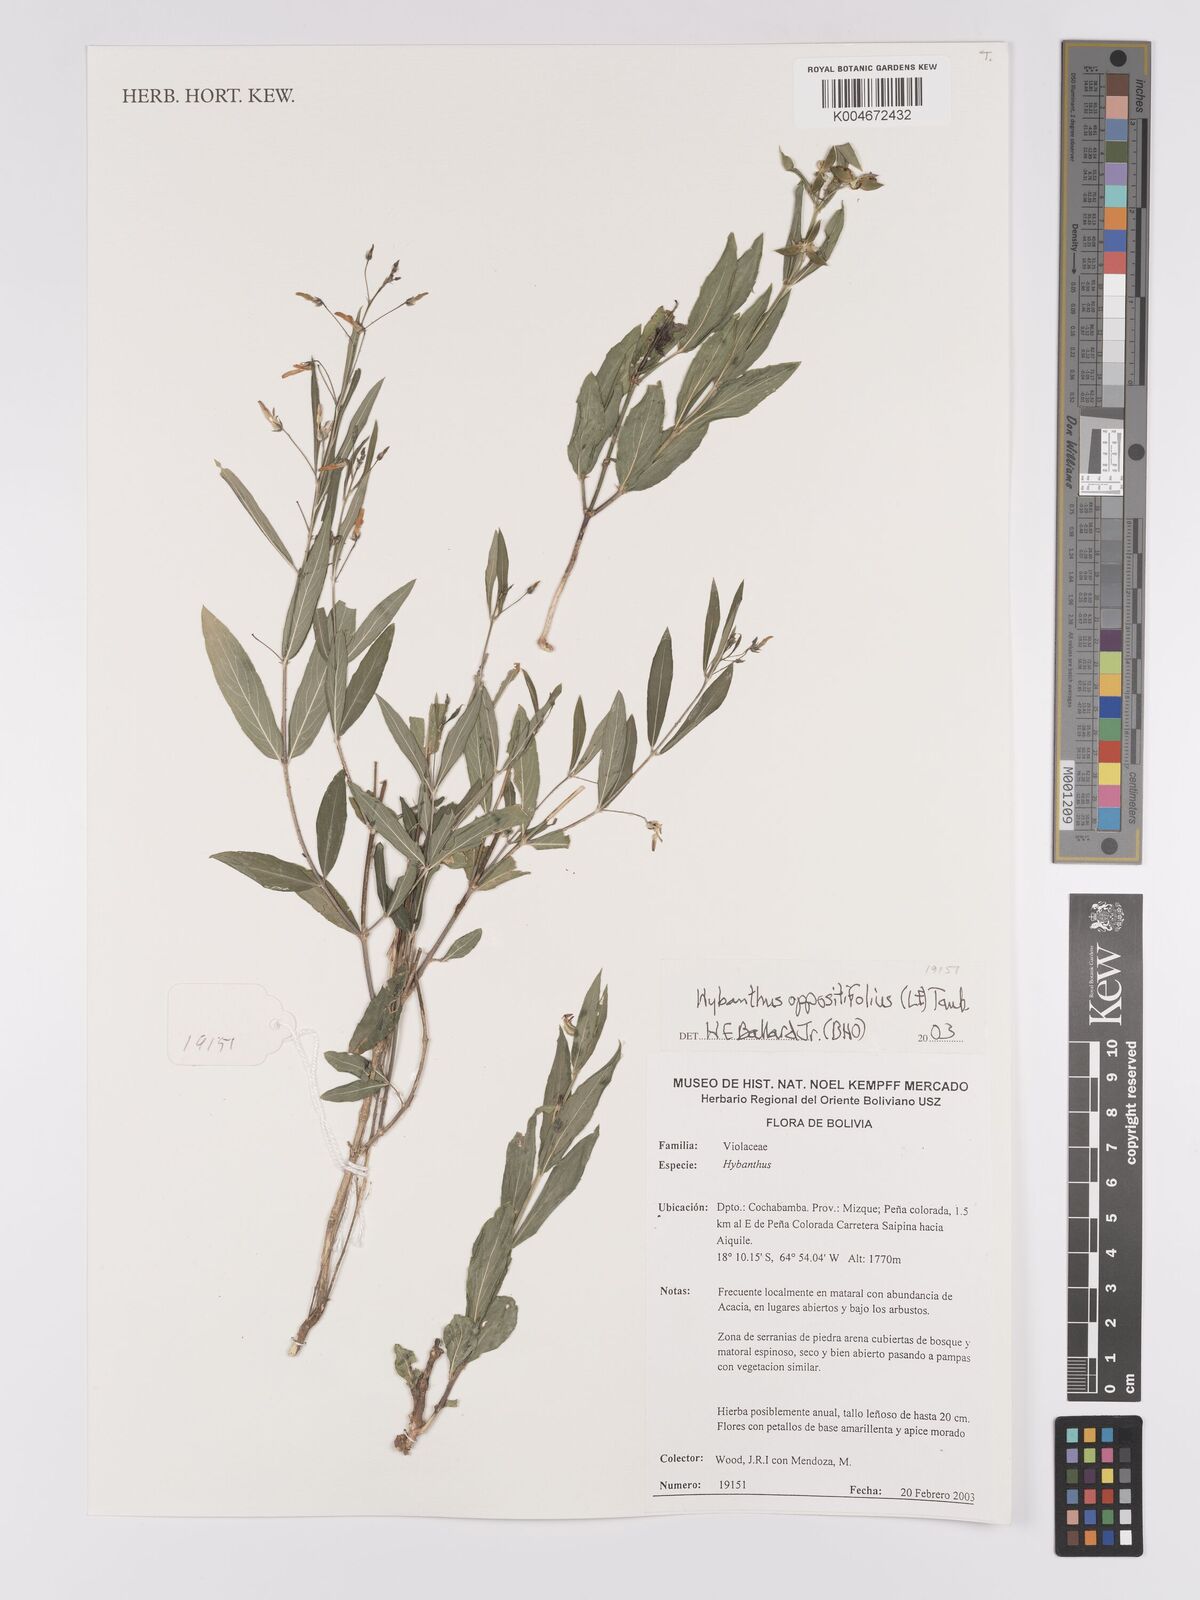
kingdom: Plantae
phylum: Tracheophyta
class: Magnoliopsida
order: Malpighiales
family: Violaceae
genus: Pombalia
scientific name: Pombalia oppositifolia
